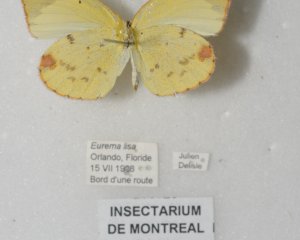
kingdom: Animalia
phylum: Arthropoda
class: Insecta
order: Lepidoptera
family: Pieridae
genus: Pyrisitia
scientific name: Pyrisitia lisa
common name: Little Yellow
